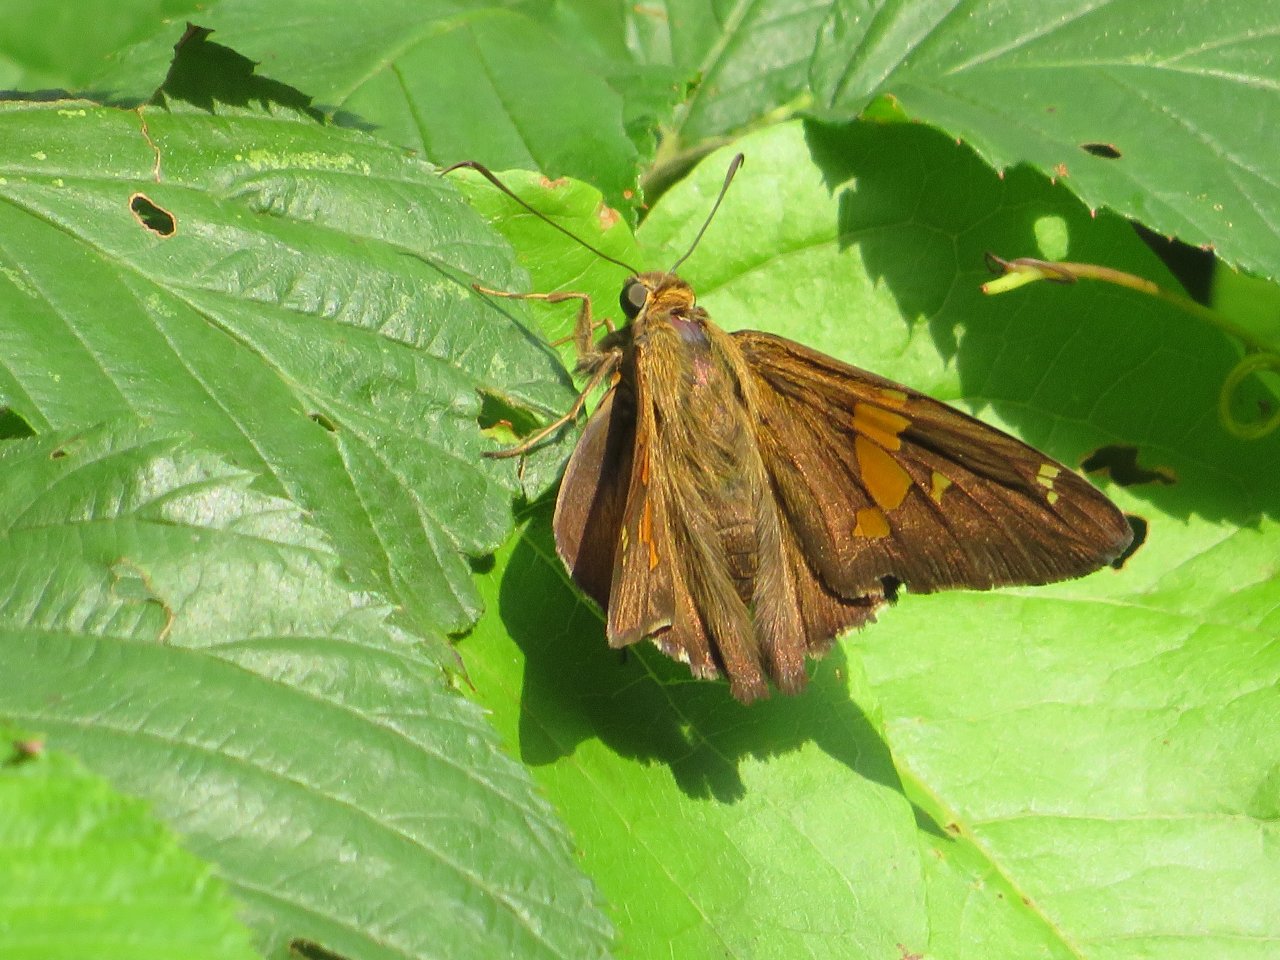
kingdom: Animalia
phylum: Arthropoda
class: Insecta
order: Lepidoptera
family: Hesperiidae
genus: Epargyreus
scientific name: Epargyreus clarus
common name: Silver-spotted Skipper
